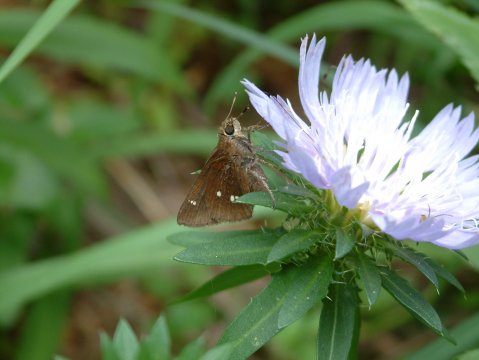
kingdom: Animalia
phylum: Arthropoda
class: Insecta
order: Lepidoptera
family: Hesperiidae
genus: Oligoria
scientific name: Oligoria maculata
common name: Twin-spot Skipper
